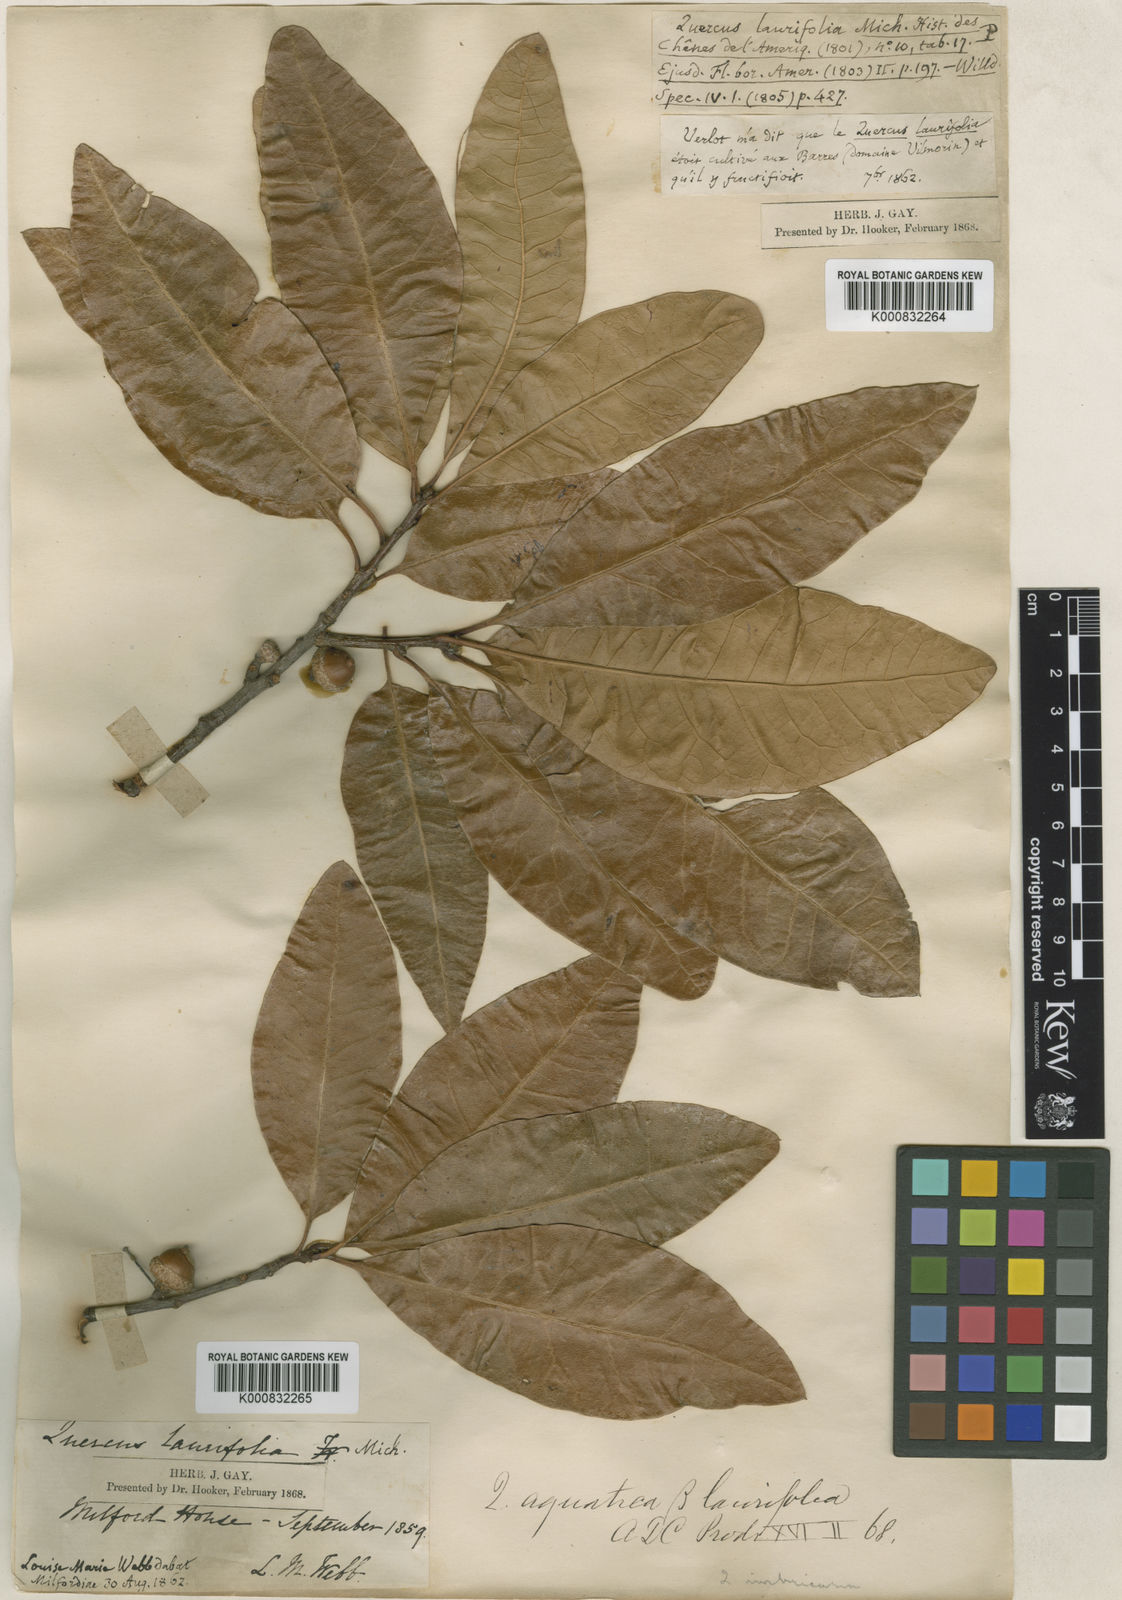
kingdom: Plantae
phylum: Tracheophyta
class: Magnoliopsida
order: Fagales
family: Fagaceae
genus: Quercus
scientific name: Quercus imbricaria
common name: Shingle oak
